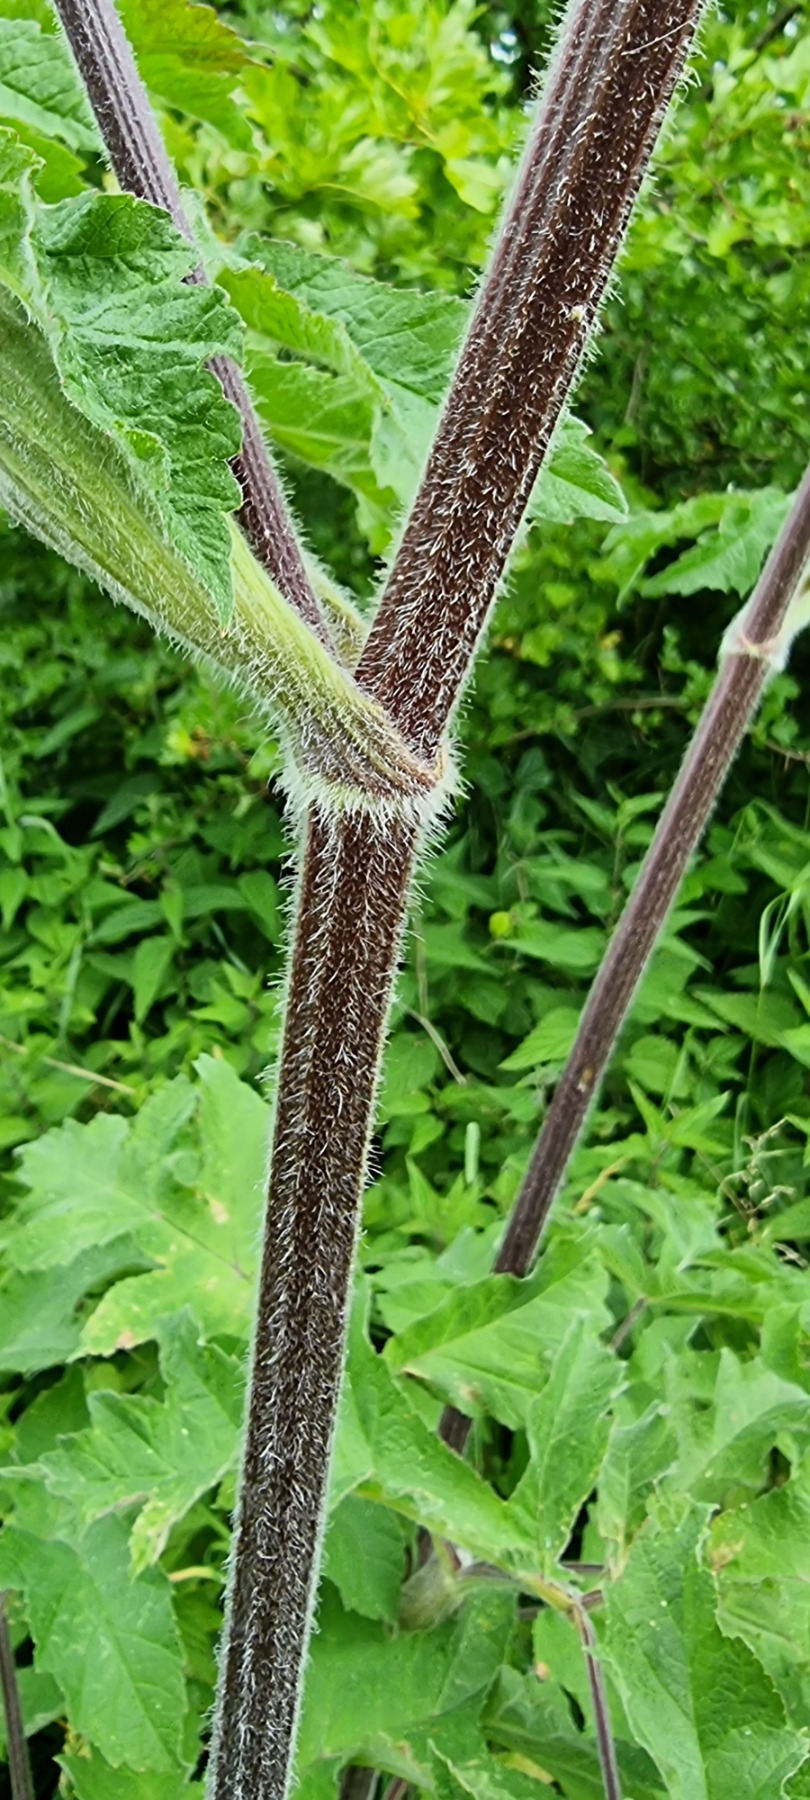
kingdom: Plantae
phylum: Tracheophyta
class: Magnoliopsida
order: Apiales
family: Apiaceae
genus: Heracleum
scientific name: Heracleum sphondylium
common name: Almindelig bjørneklo (underart)
